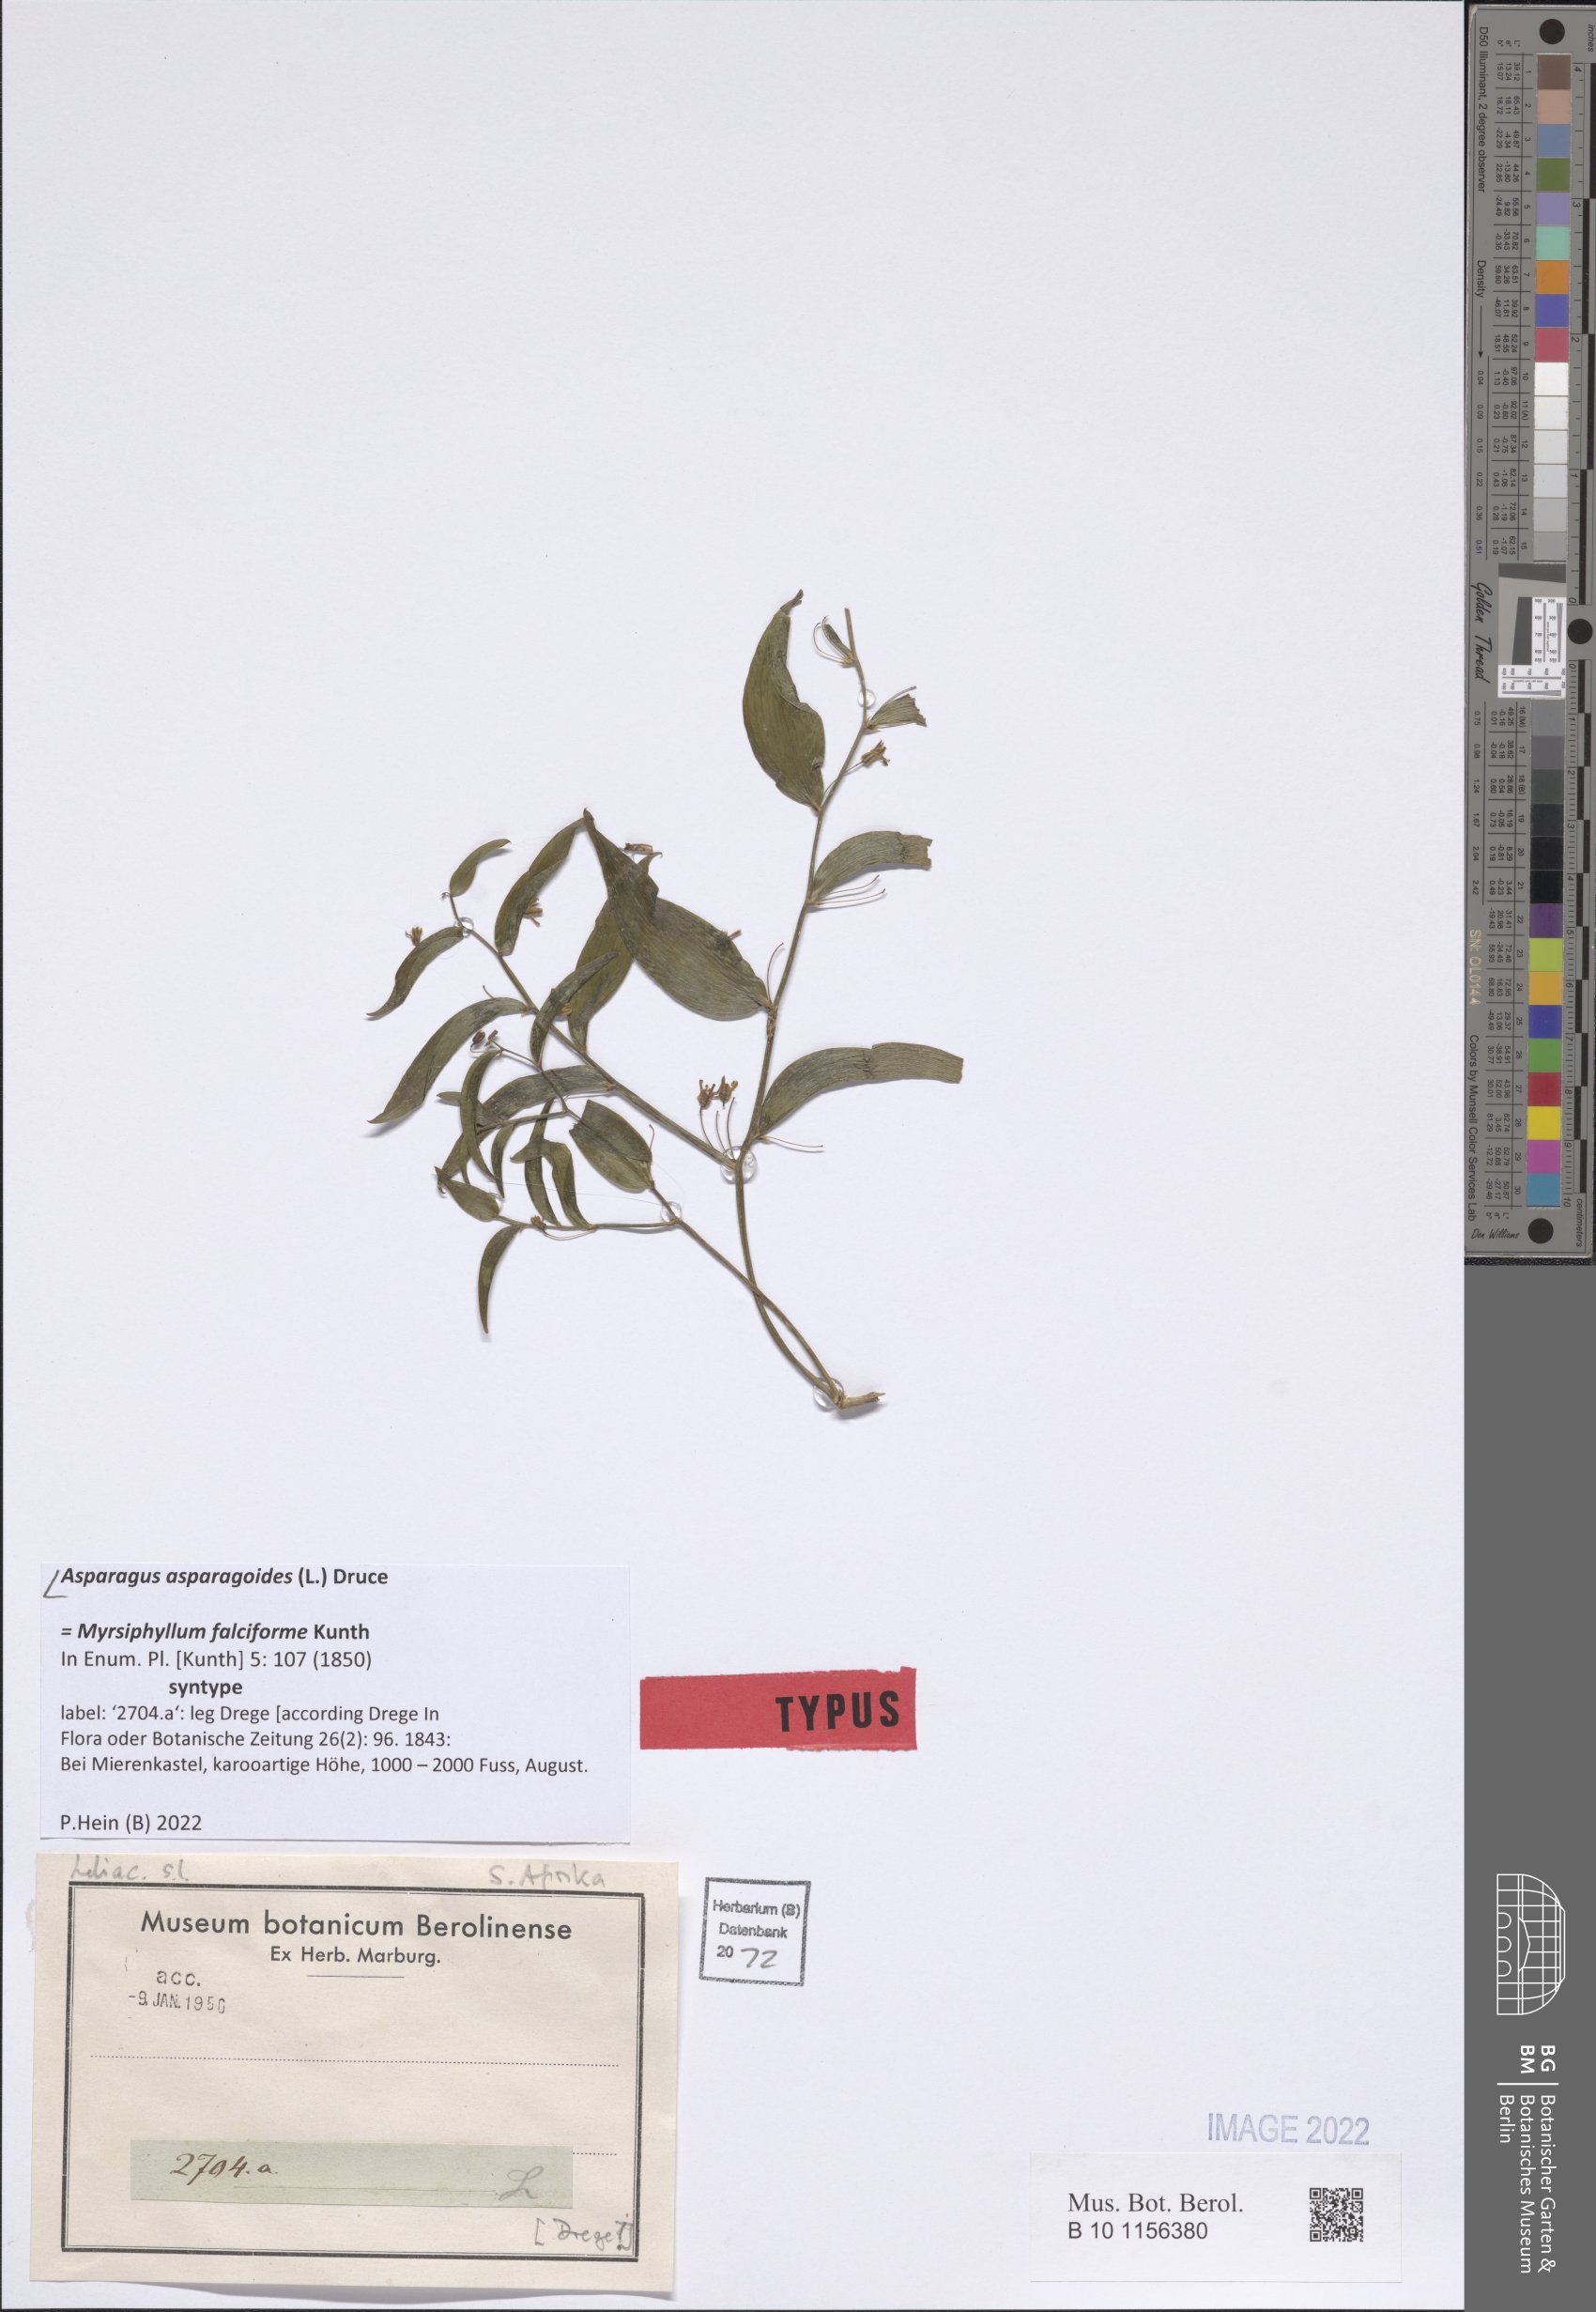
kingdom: Plantae
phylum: Tracheophyta
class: Liliopsida
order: Asparagales
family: Asparagaceae
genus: Asparagus
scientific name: Asparagus asparagoides
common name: African asparagus fern
